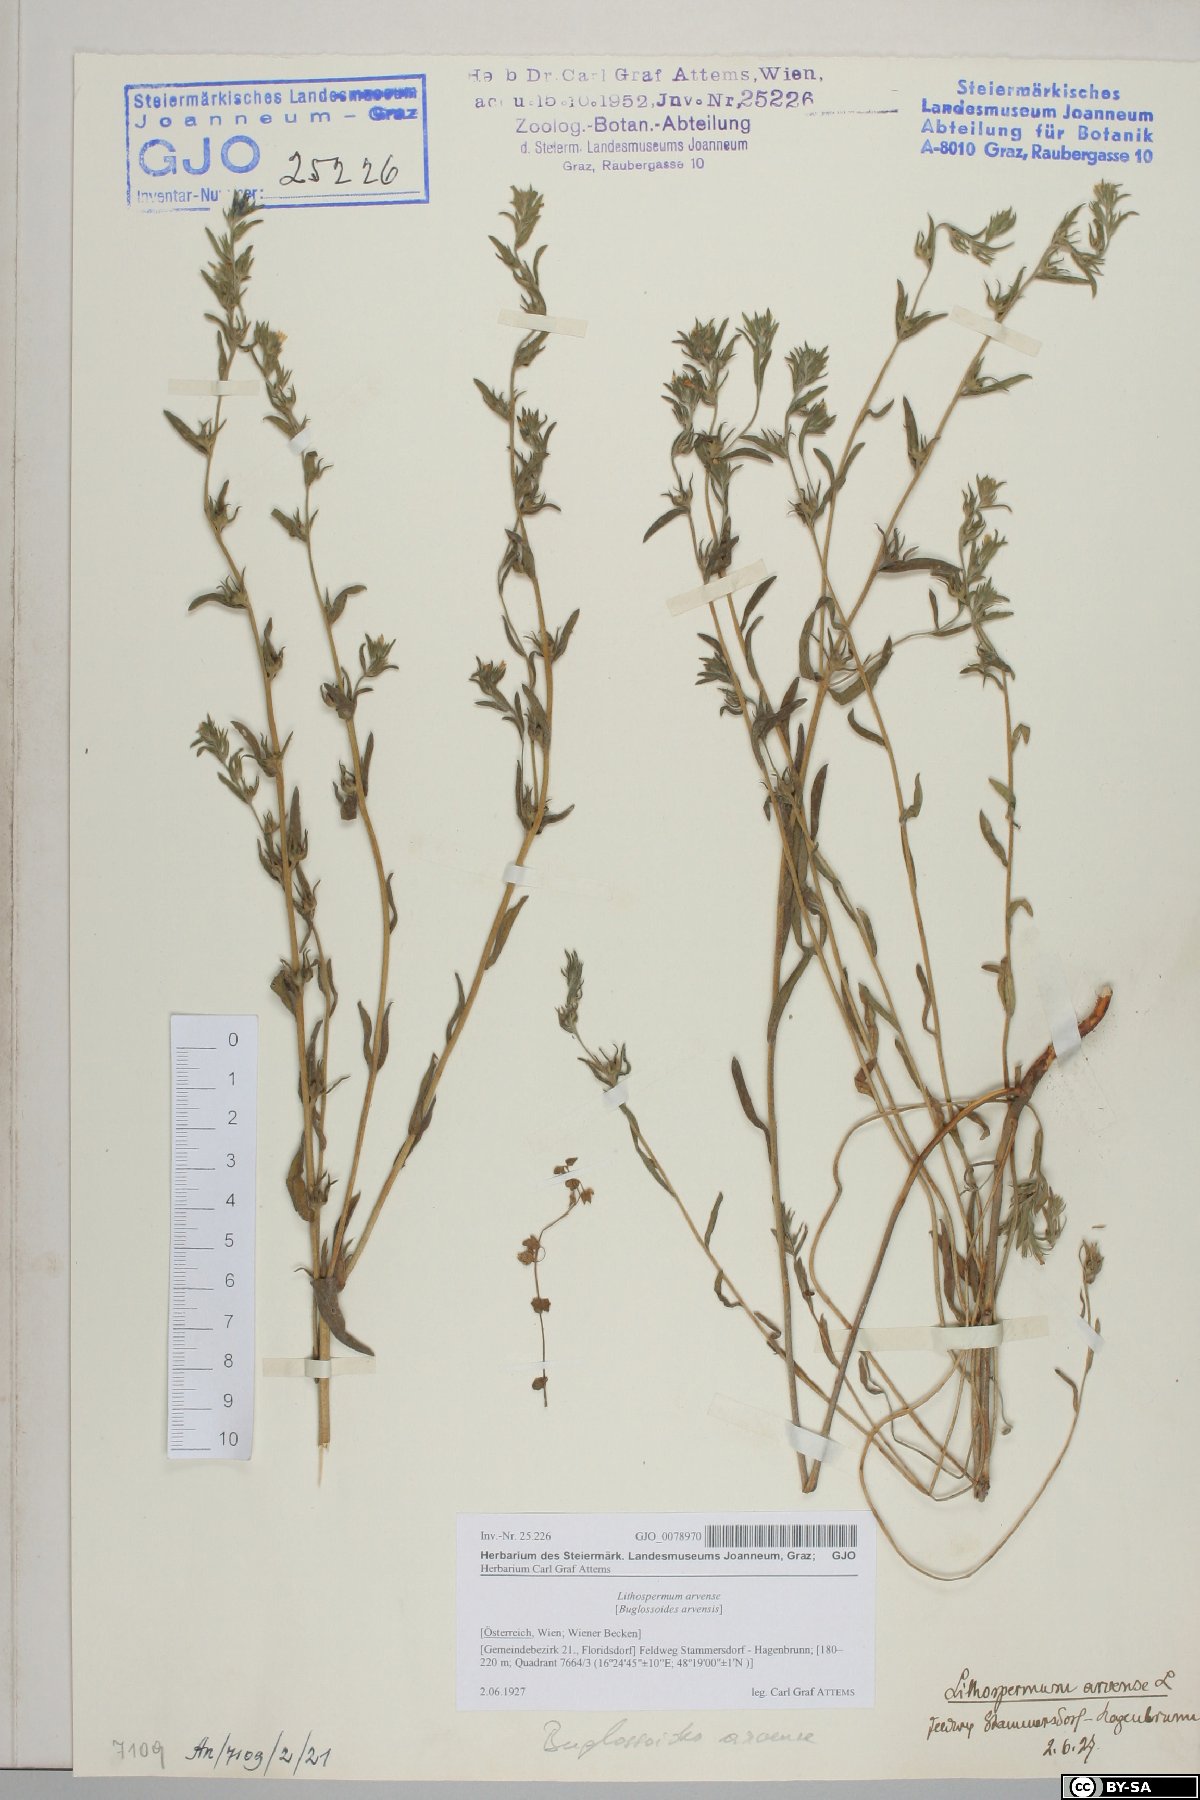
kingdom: Plantae
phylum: Tracheophyta
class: Magnoliopsida
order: Boraginales
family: Boraginaceae
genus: Buglossoides
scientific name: Buglossoides arvensis
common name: Corn gromwell
